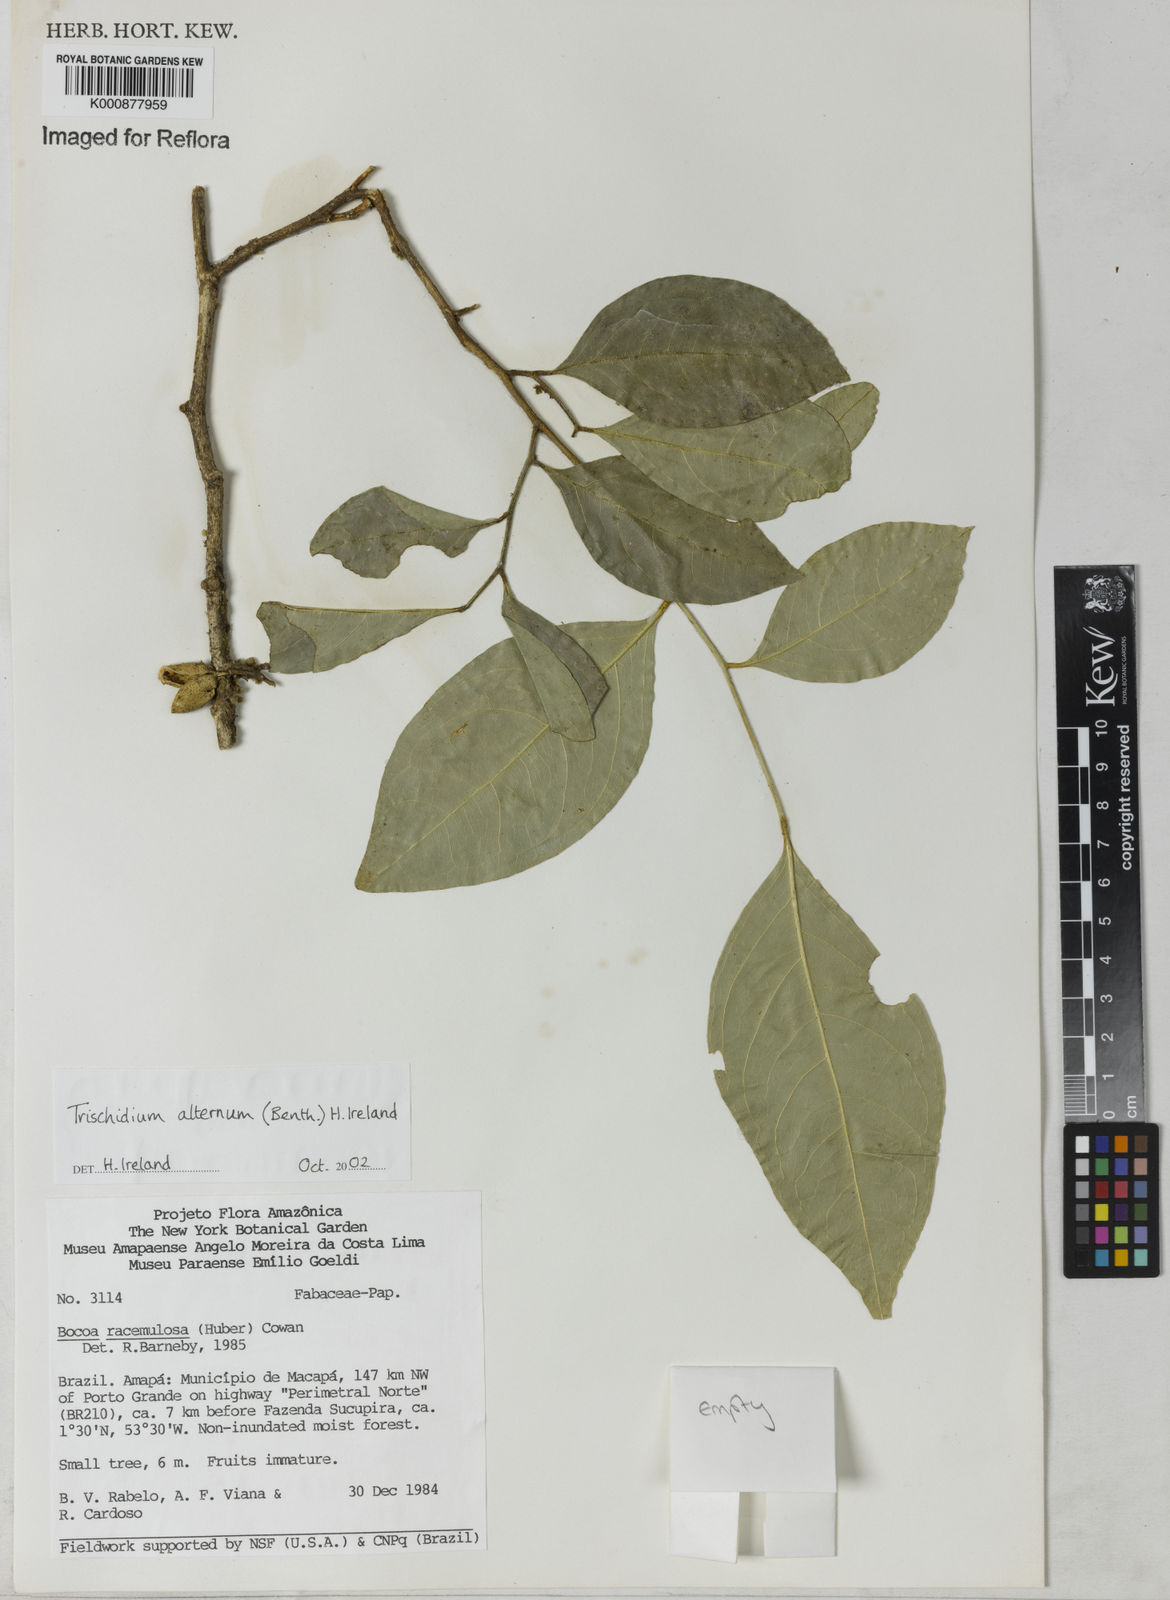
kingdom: Plantae
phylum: Tracheophyta
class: Magnoliopsida
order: Fabales
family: Fabaceae
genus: Trischidium
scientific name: Trischidium alternum
